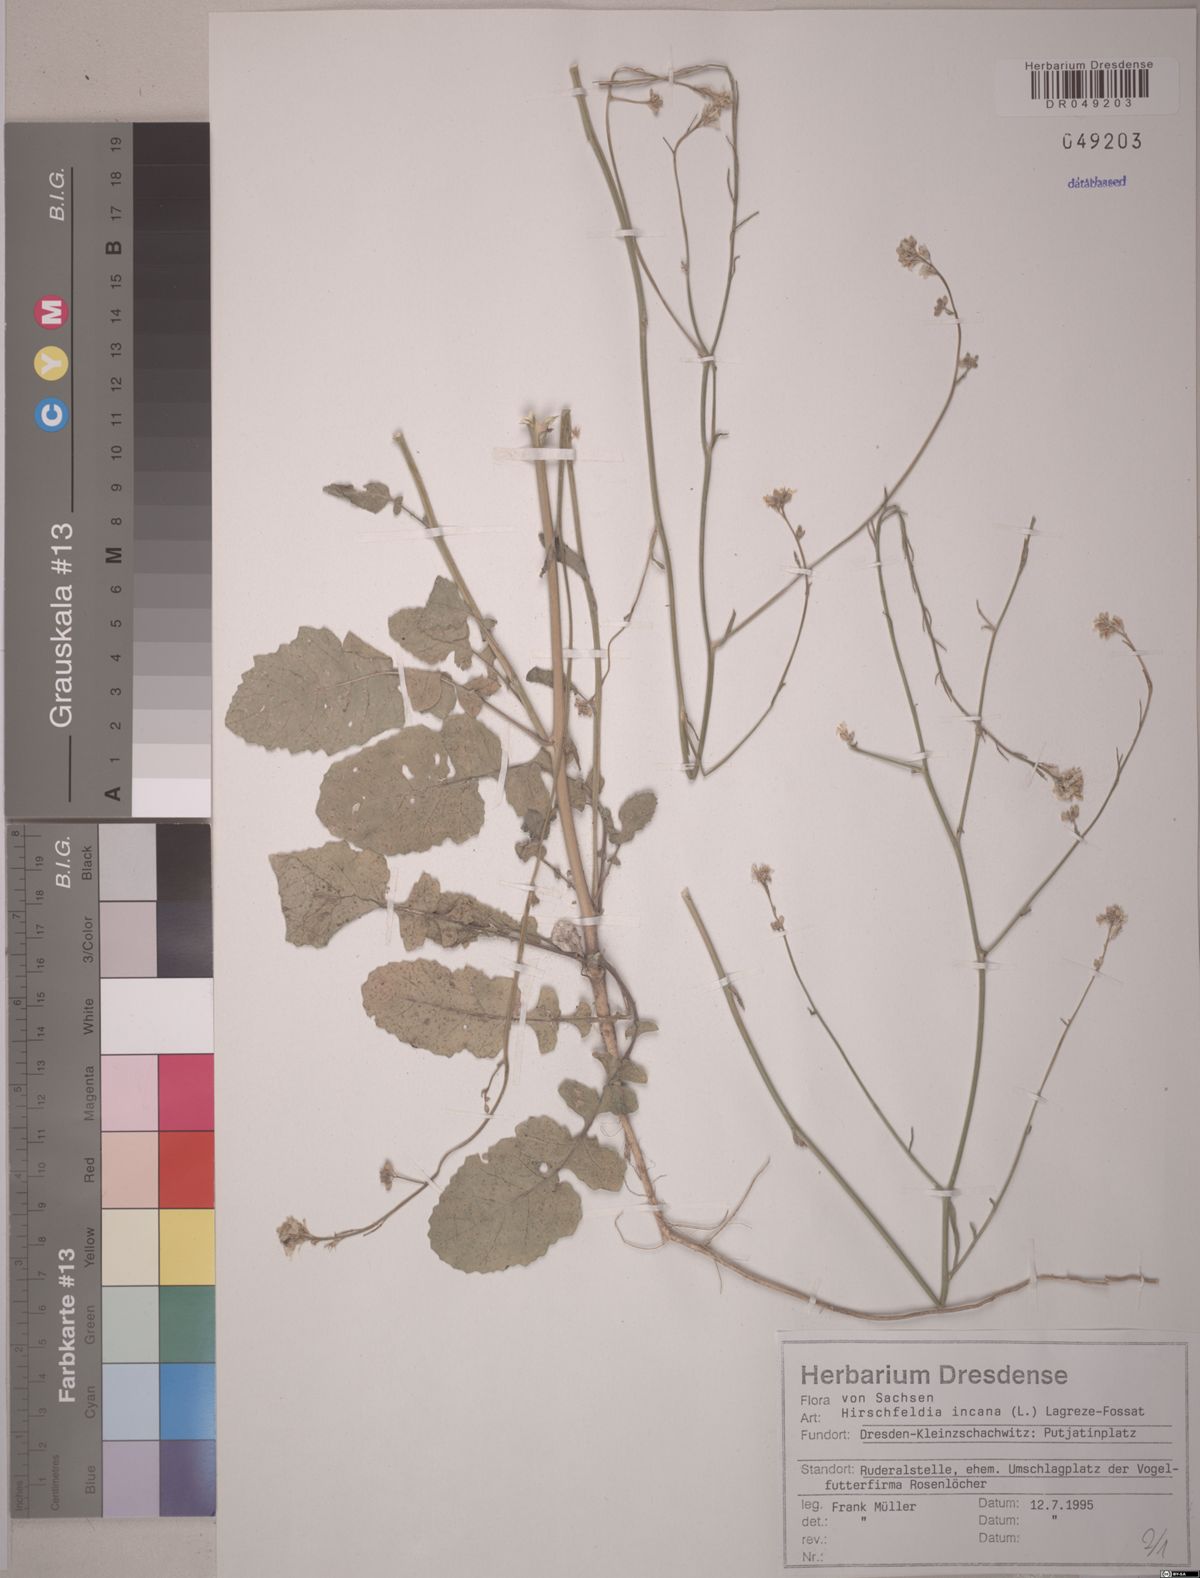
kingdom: Plantae
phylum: Tracheophyta
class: Magnoliopsida
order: Brassicales
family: Brassicaceae
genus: Hirschfeldia
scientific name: Hirschfeldia incana
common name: Hoary mustard
